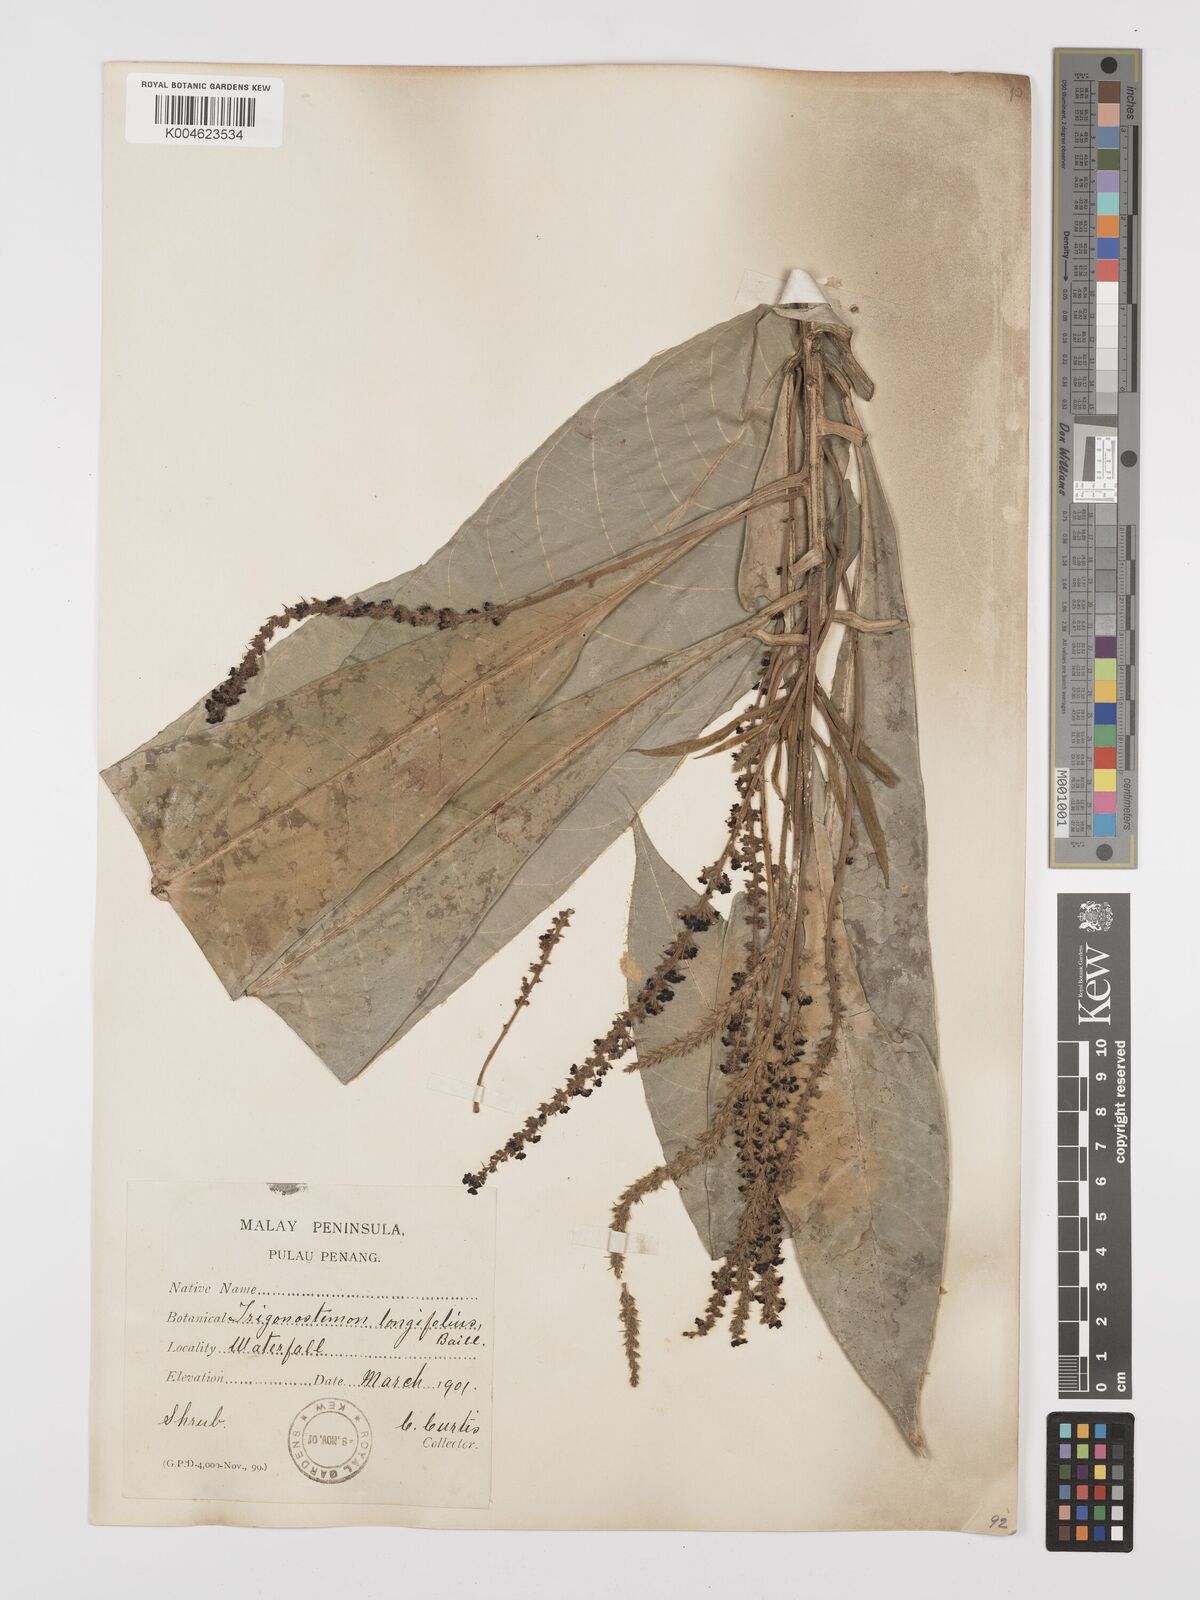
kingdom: Plantae
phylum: Tracheophyta
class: Magnoliopsida
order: Malpighiales
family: Euphorbiaceae
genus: Trigonostemon
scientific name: Trigonostemon longifolius
